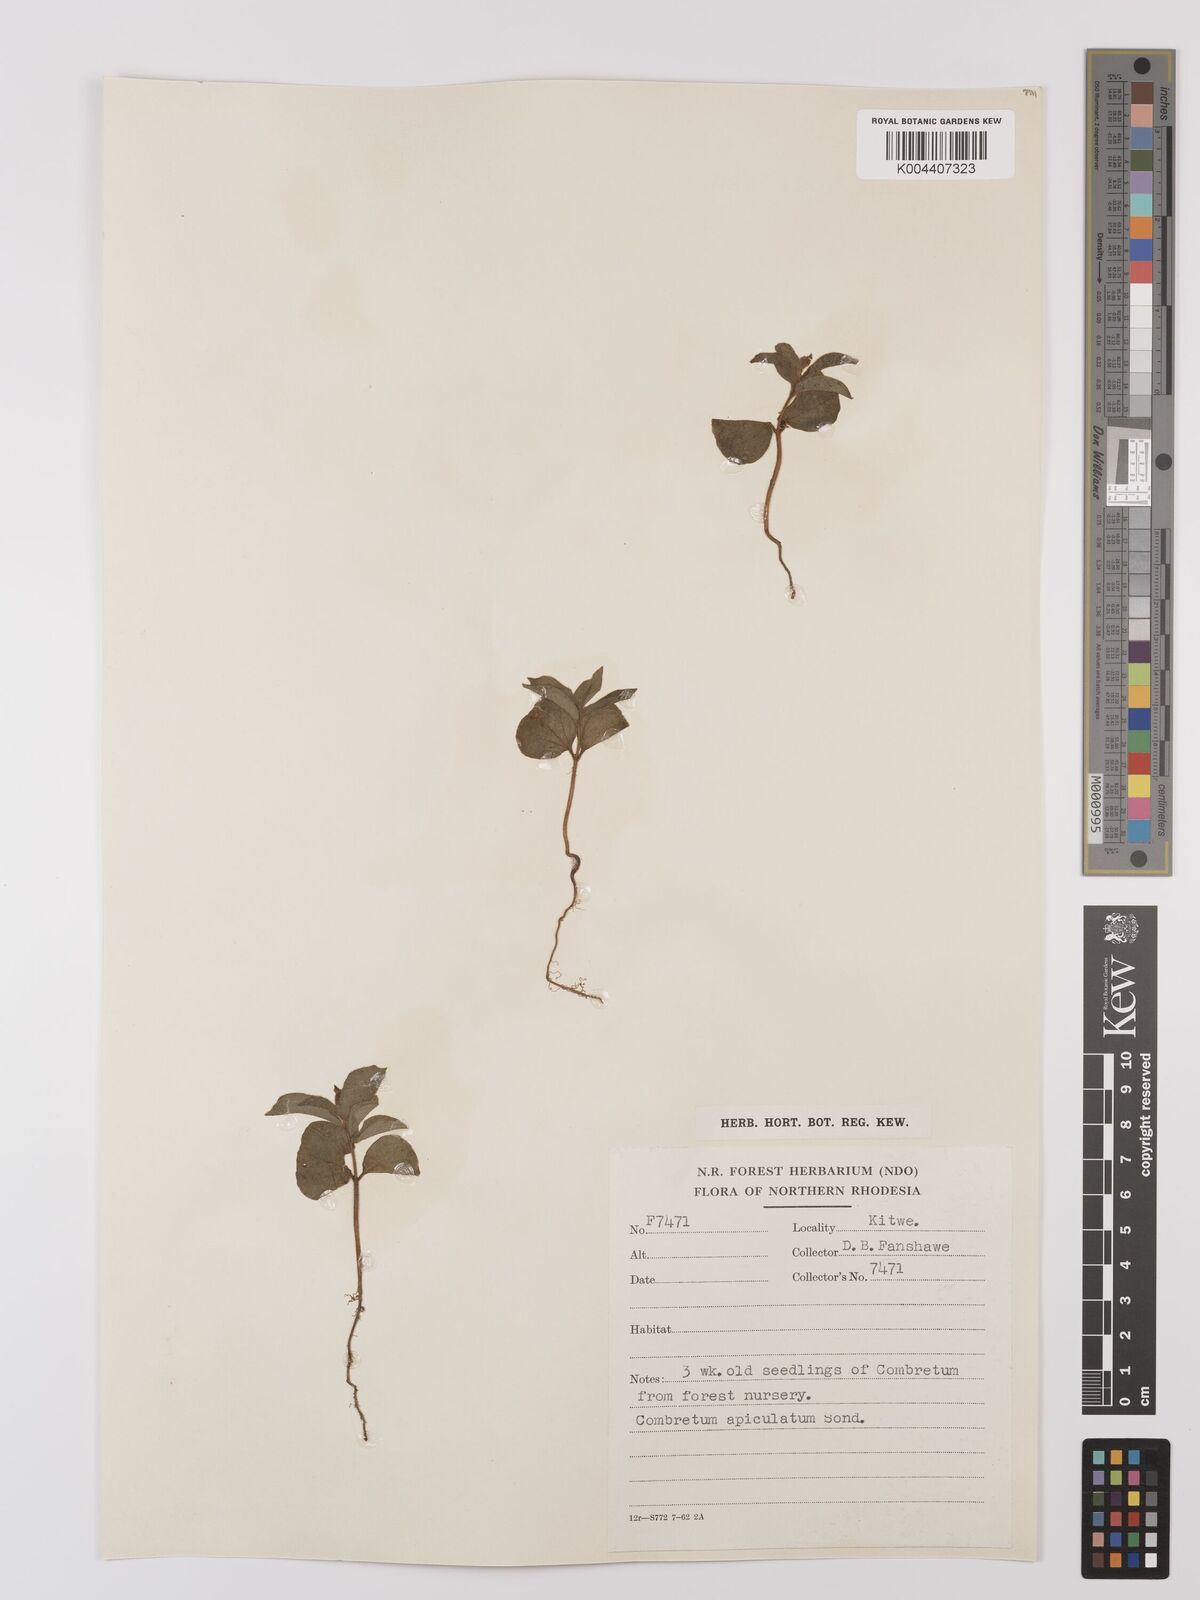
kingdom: Plantae
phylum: Tracheophyta
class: Magnoliopsida
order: Myrtales
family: Combretaceae
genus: Combretum
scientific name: Combretum apiculatum
